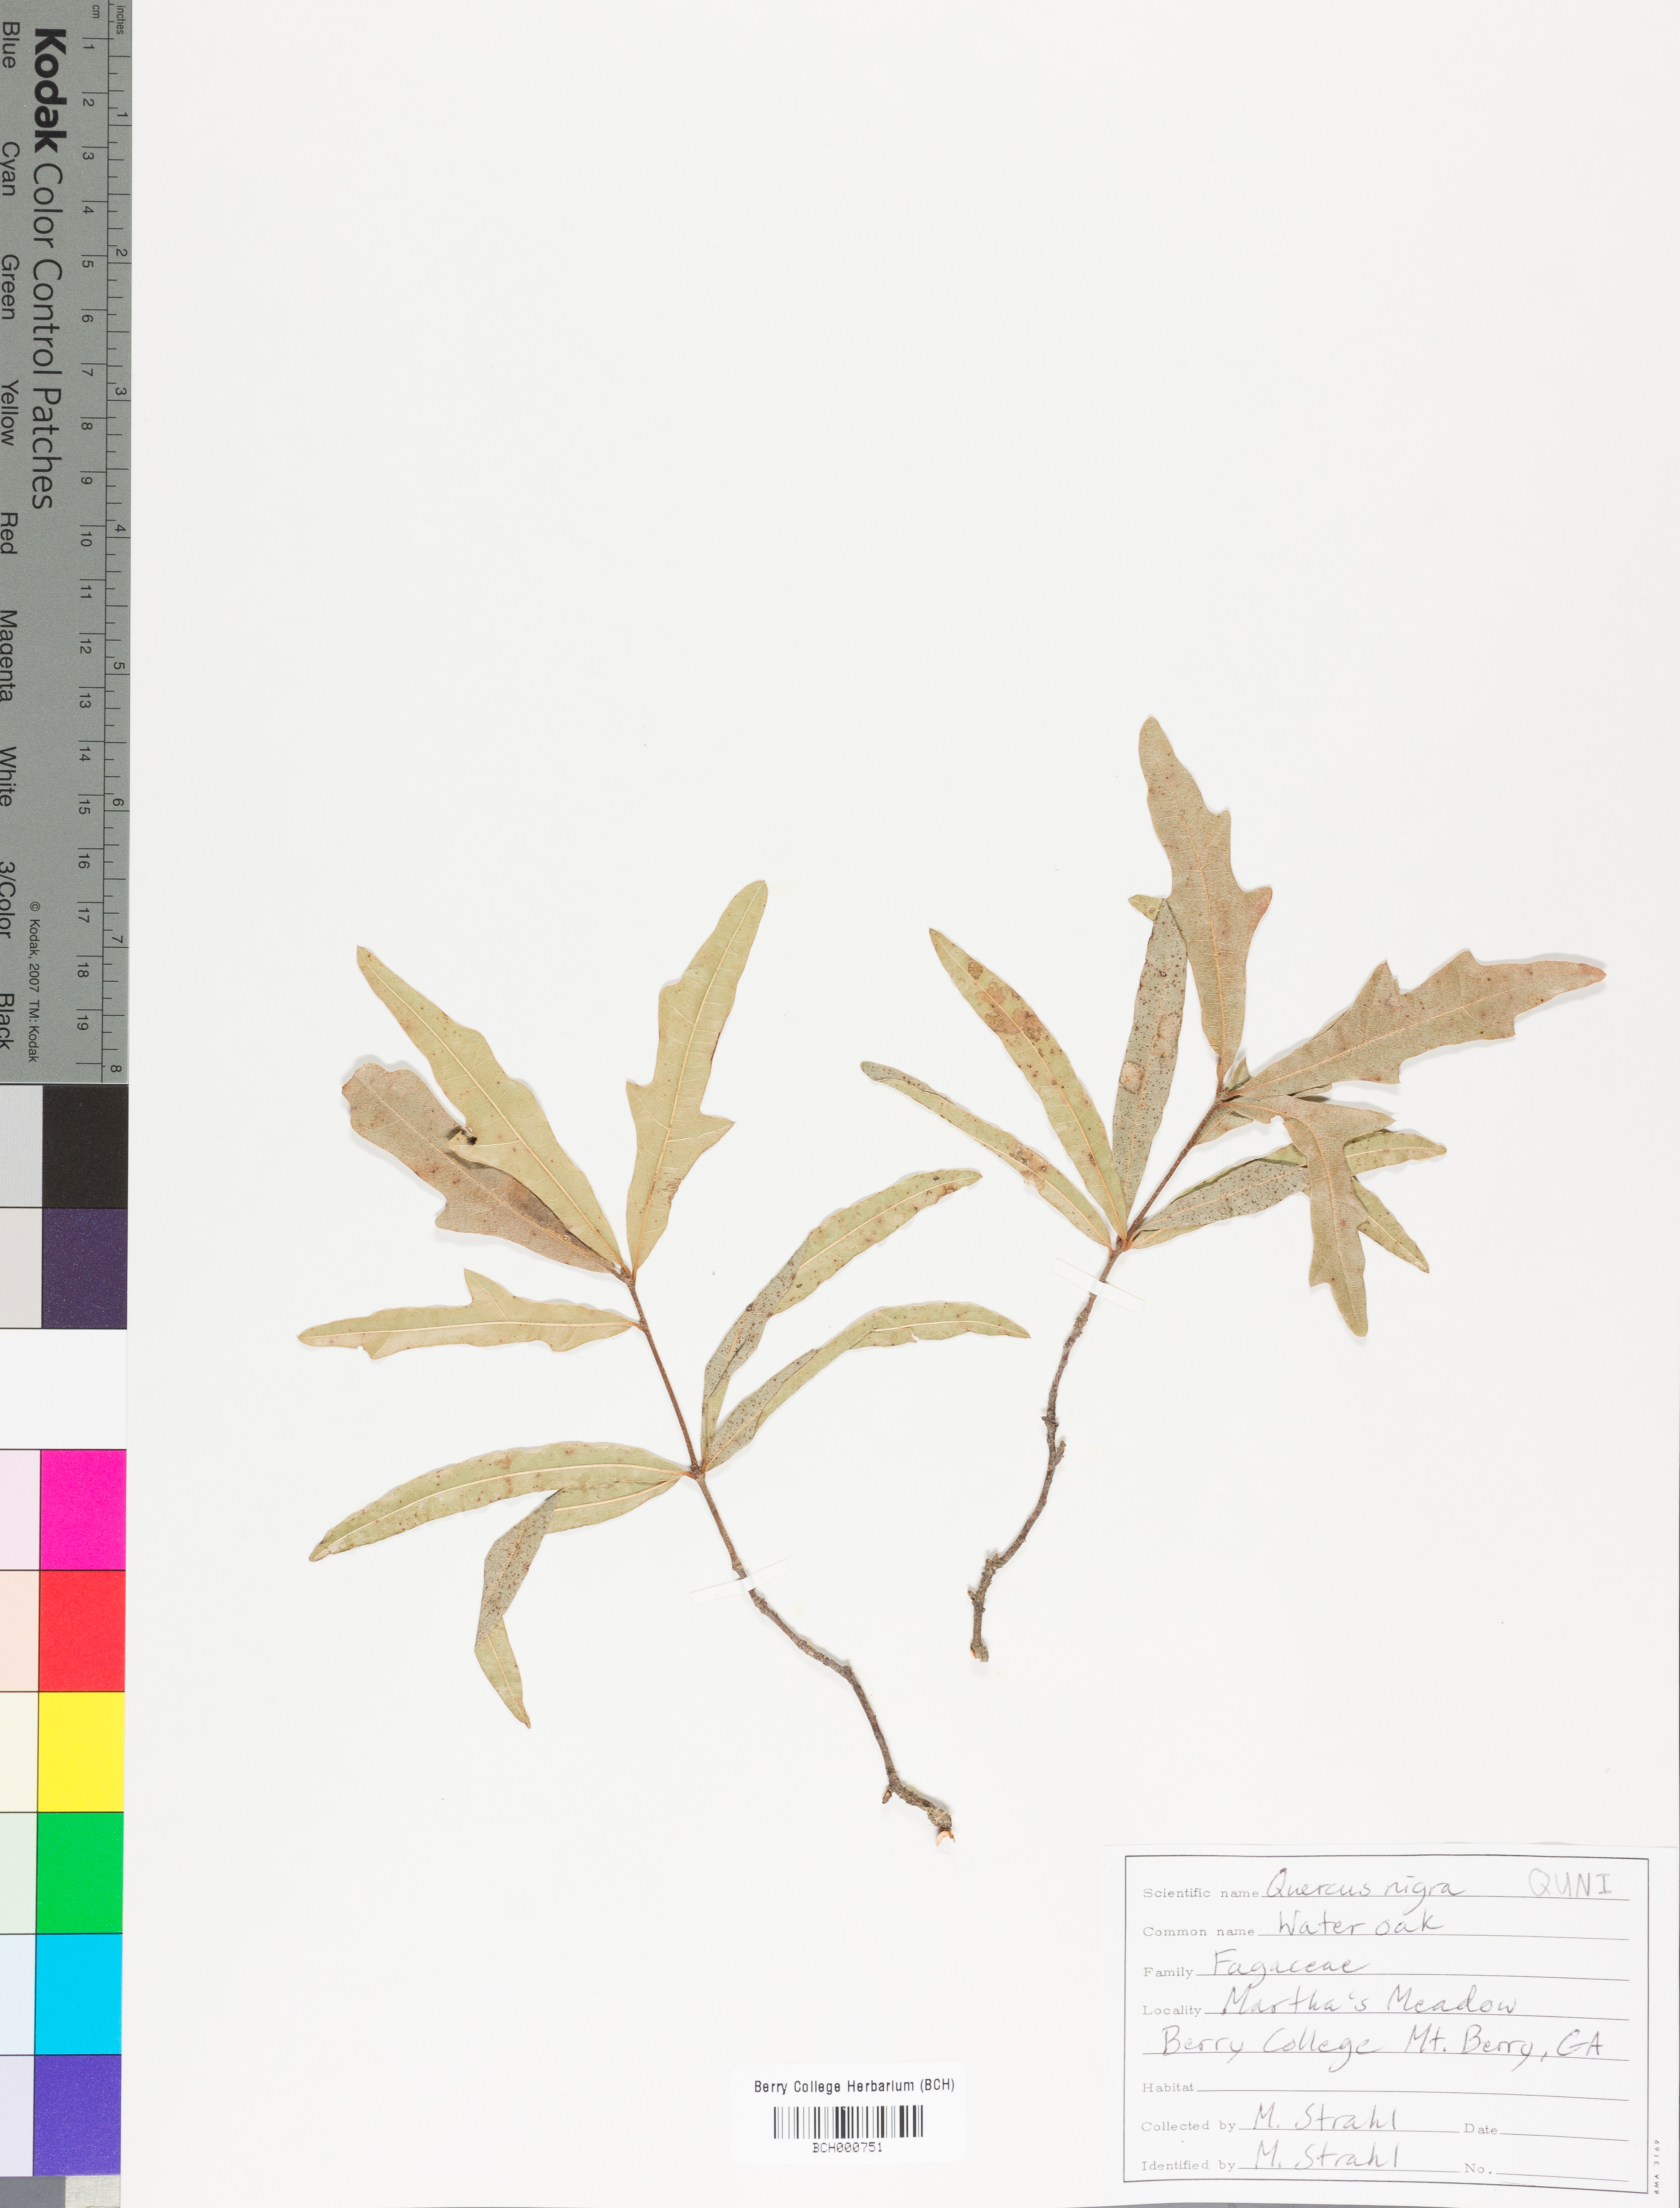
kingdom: Plantae
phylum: Tracheophyta
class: Magnoliopsida
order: Fagales
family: Fagaceae
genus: Quercus
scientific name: Quercus nigra
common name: Water oak
